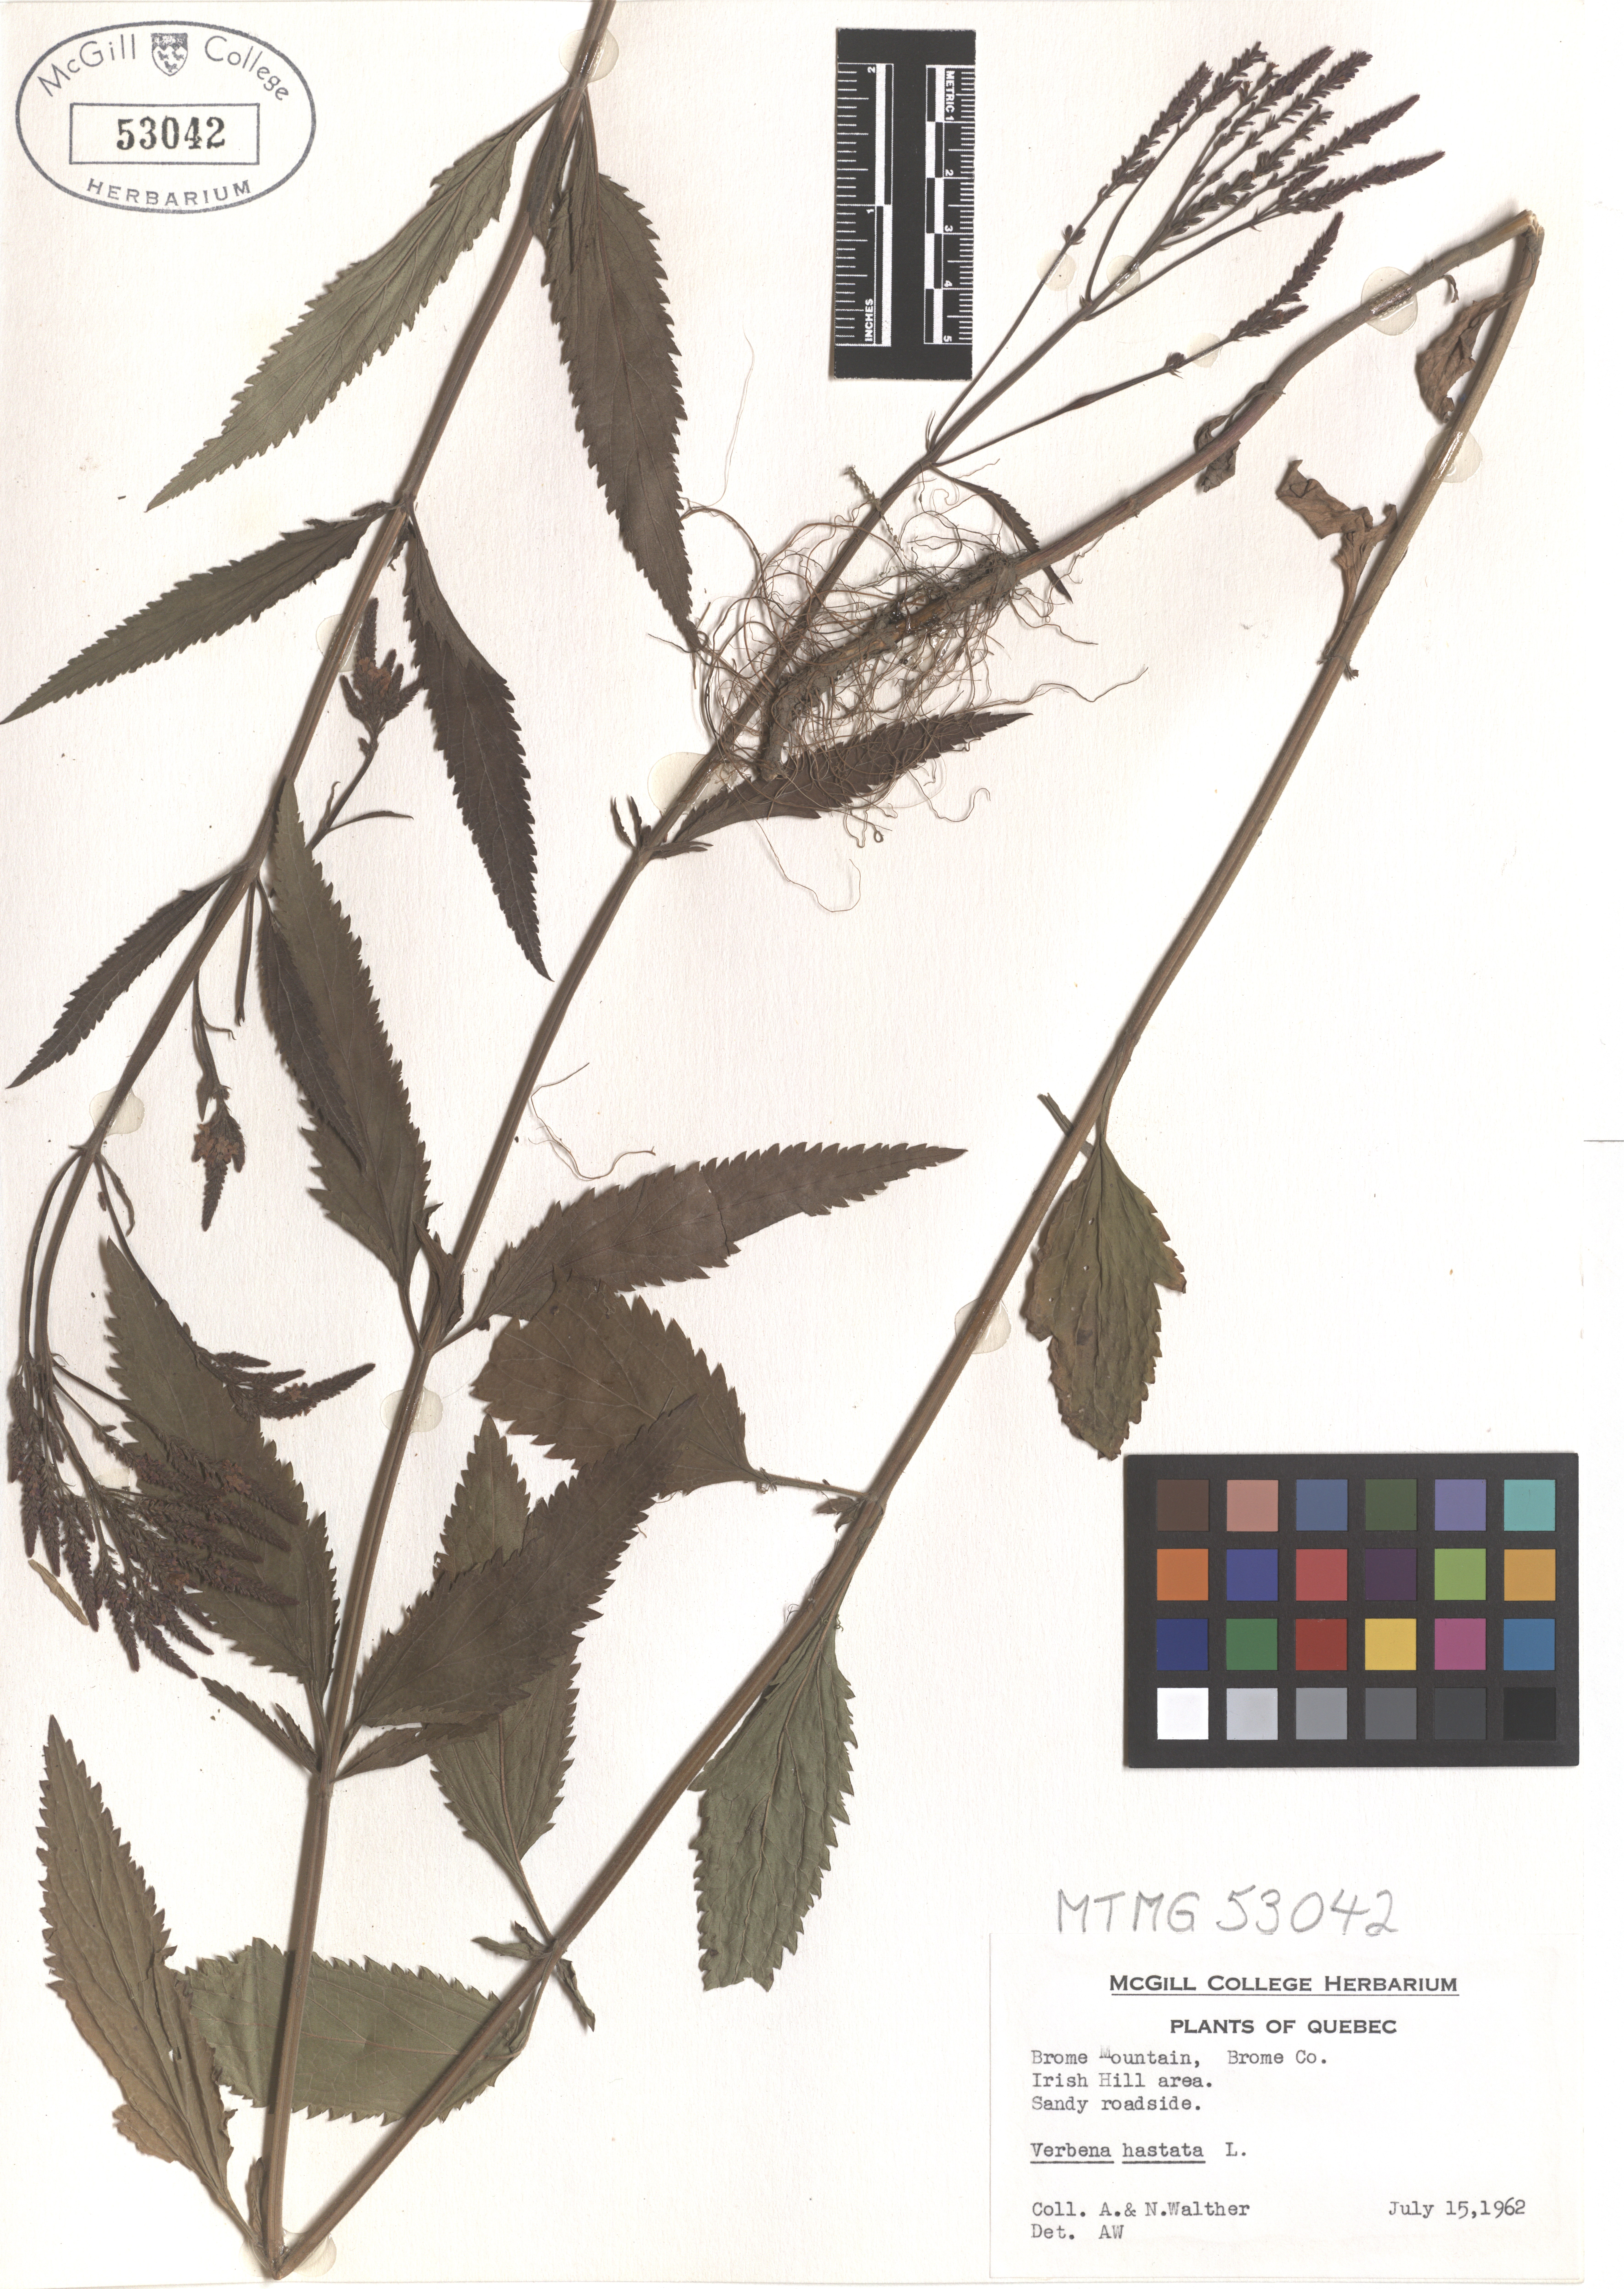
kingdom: Plantae
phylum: Tracheophyta
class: Magnoliopsida
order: Lamiales
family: Verbenaceae
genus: Verbena
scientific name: Verbena hastata
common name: American blue vervain
